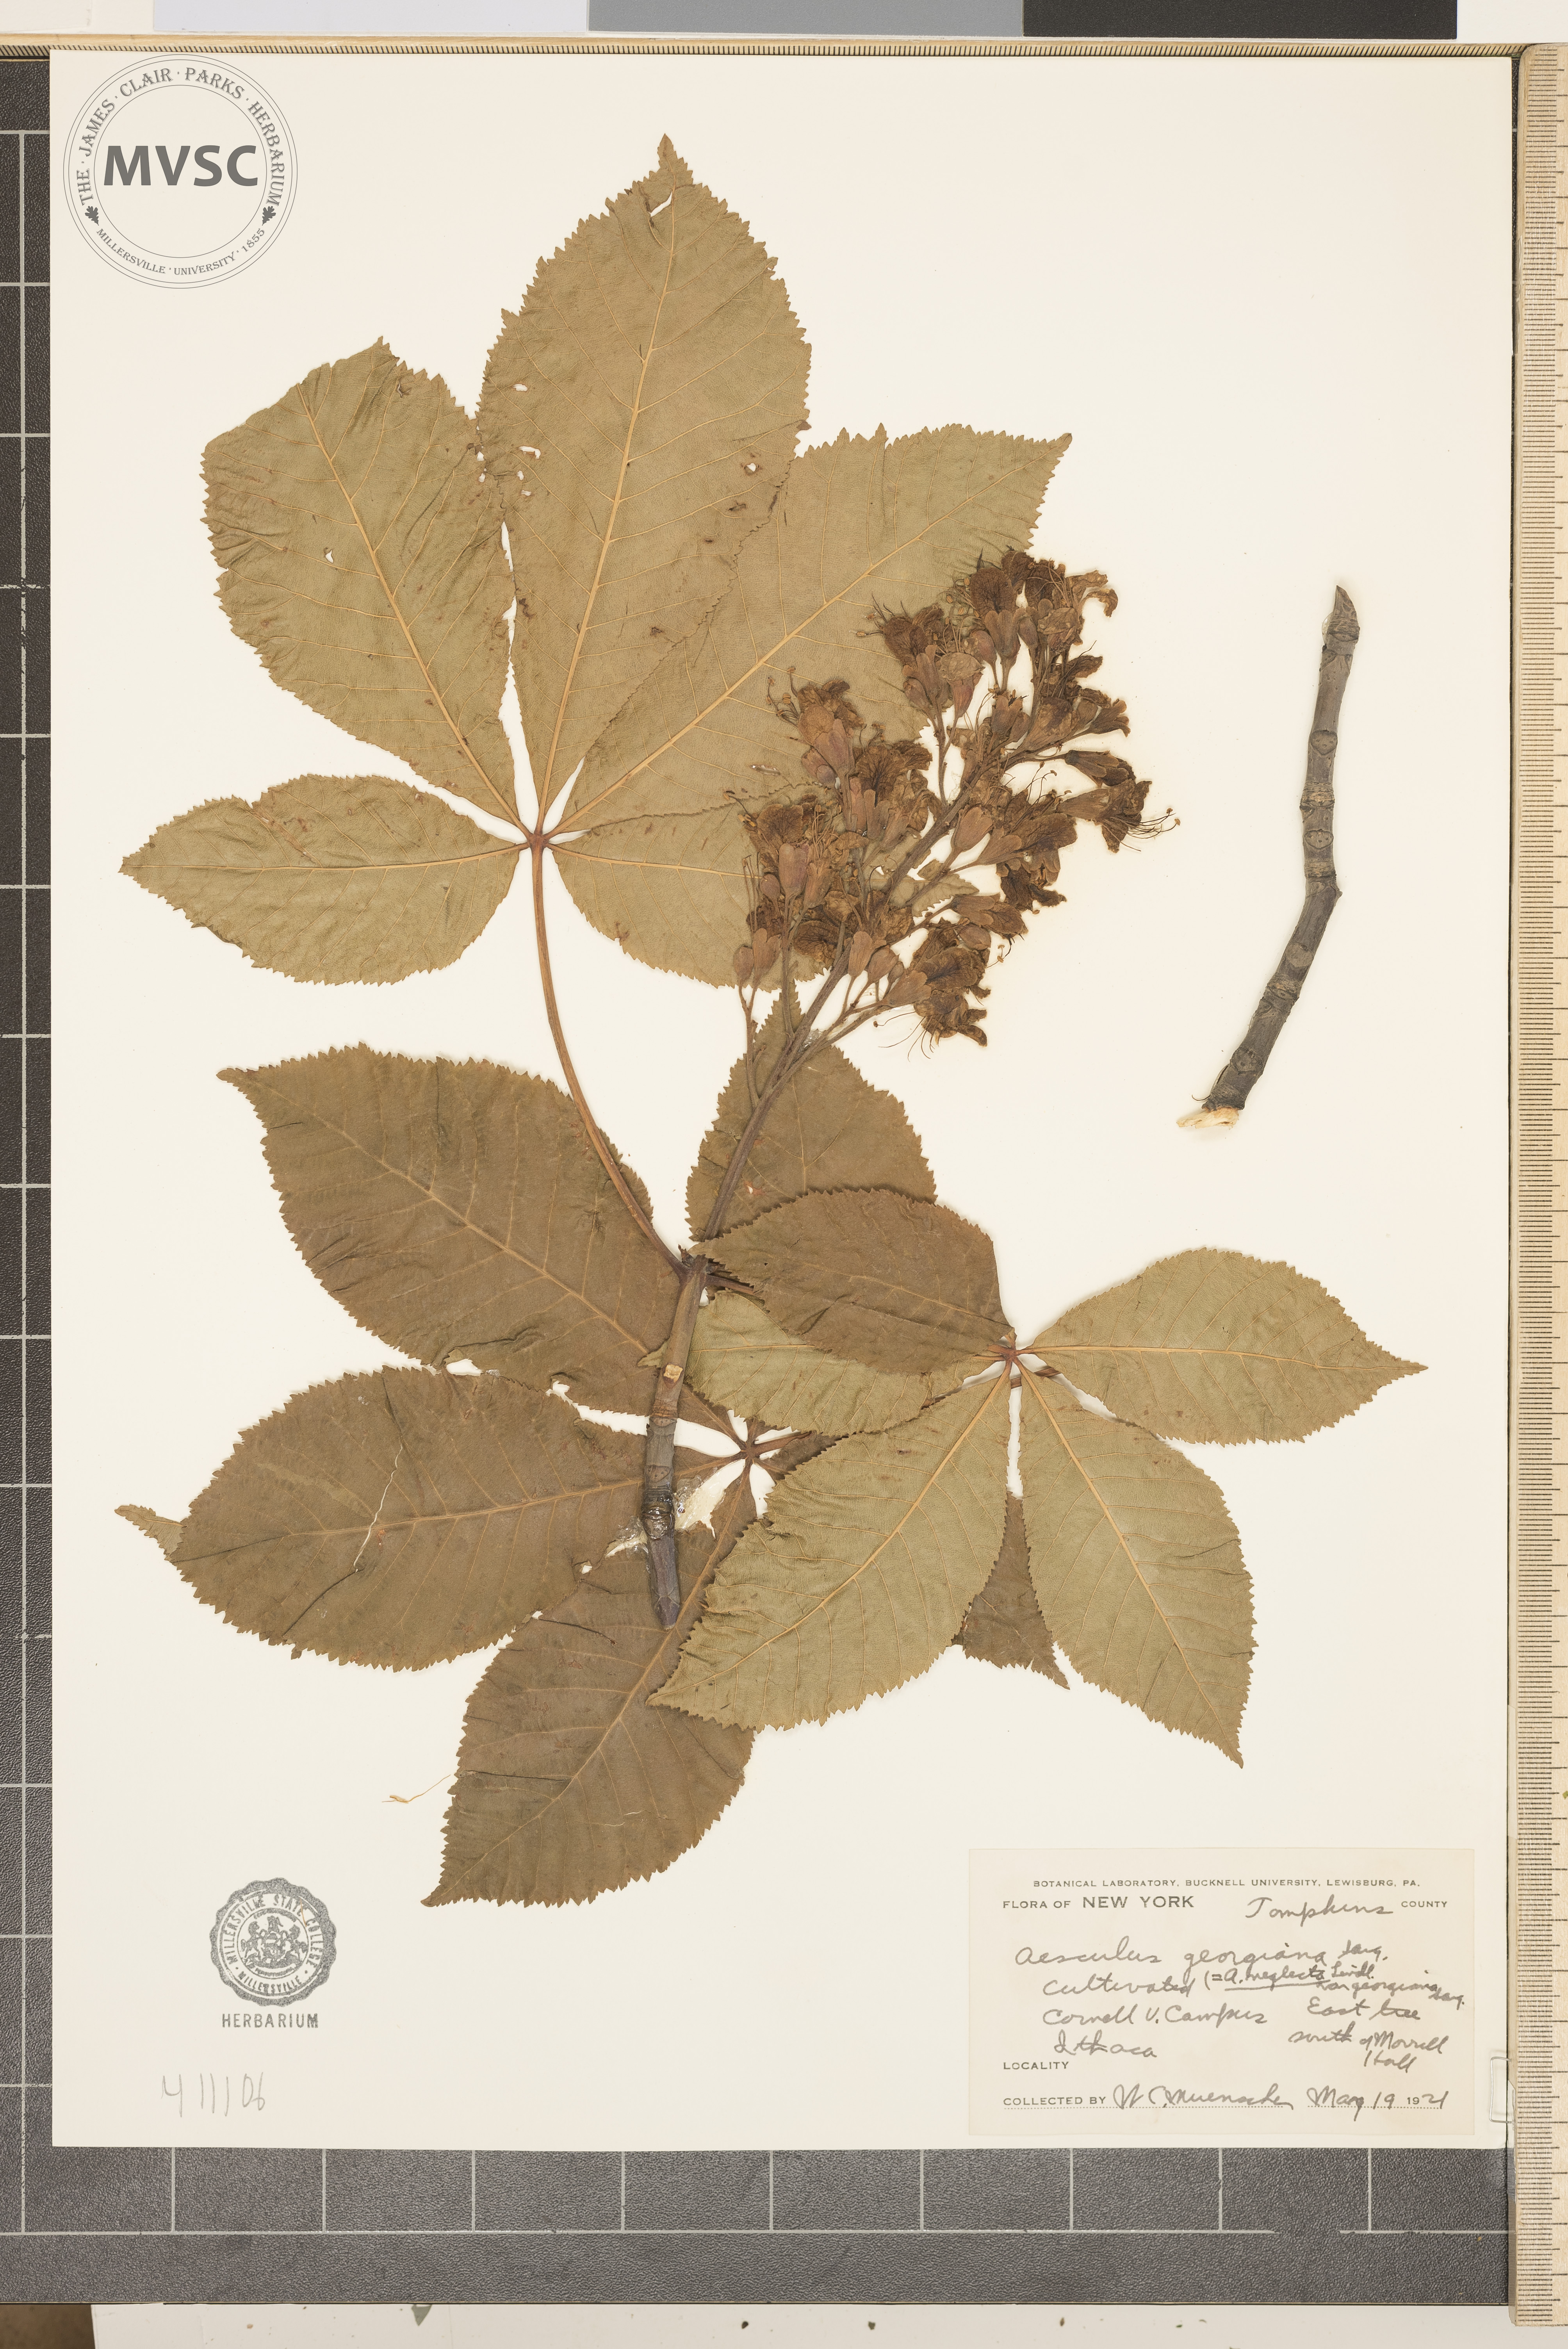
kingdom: Plantae
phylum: Tracheophyta
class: Magnoliopsida
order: Sapindales
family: Sapindaceae
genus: Aesculus
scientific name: Aesculus sylvatica
